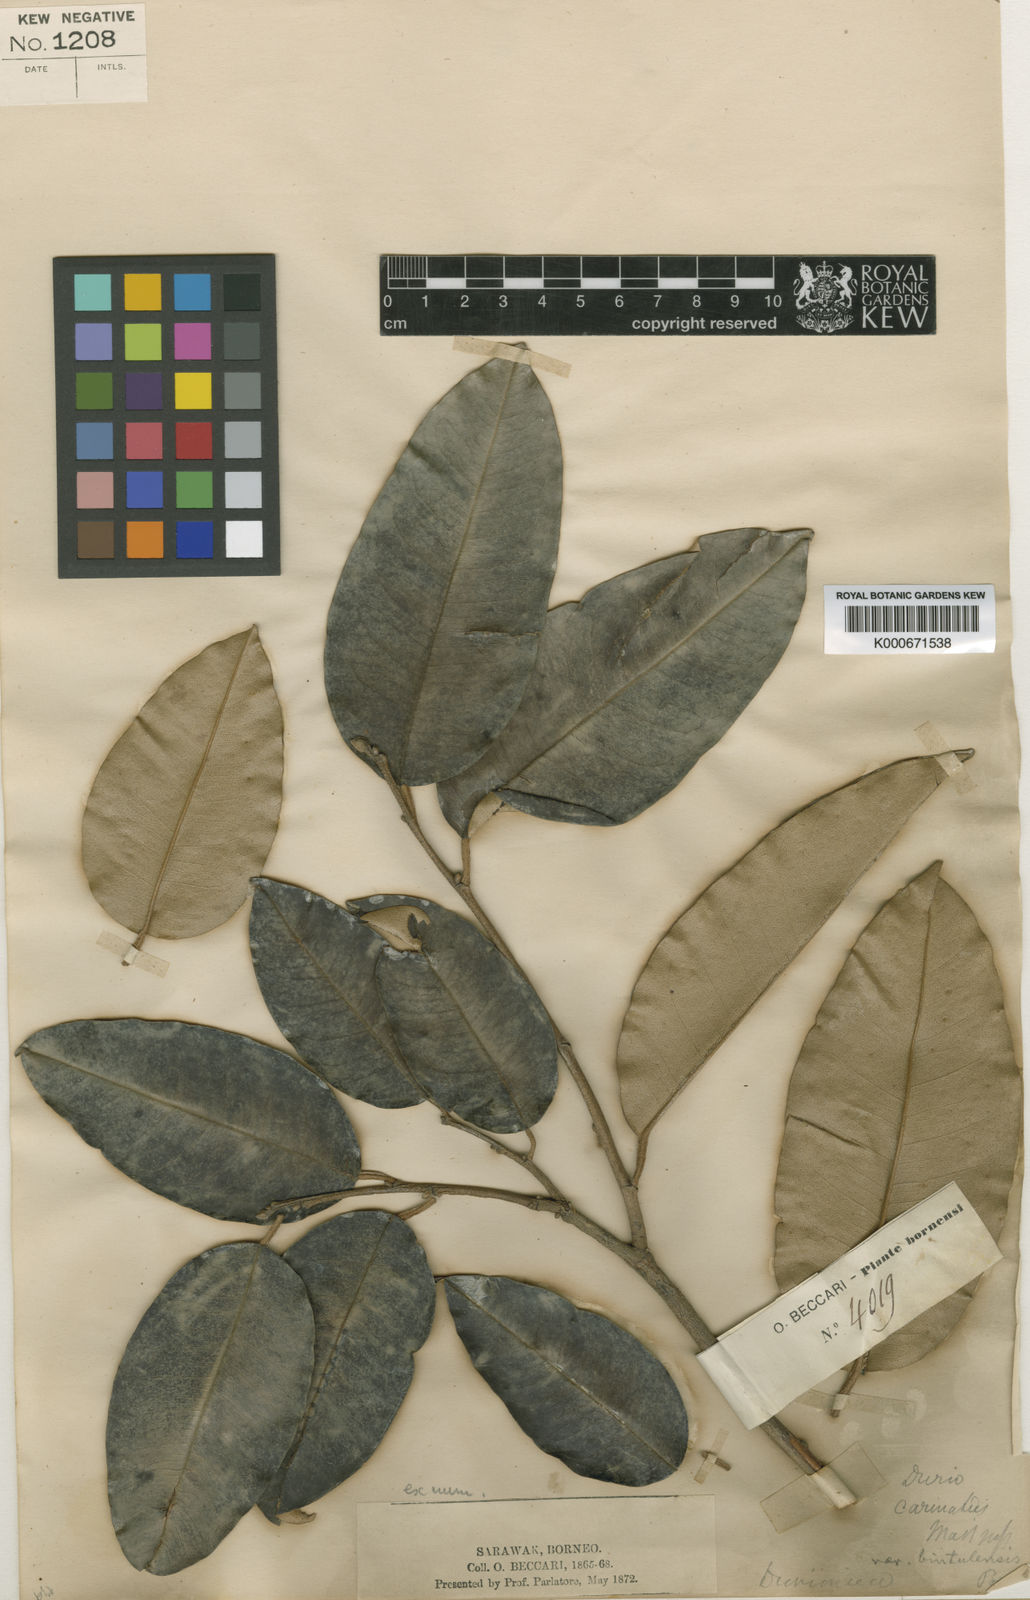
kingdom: Plantae
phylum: Tracheophyta
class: Magnoliopsida
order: Malvales
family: Malvaceae
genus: Durio
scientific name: Durio carinatus
